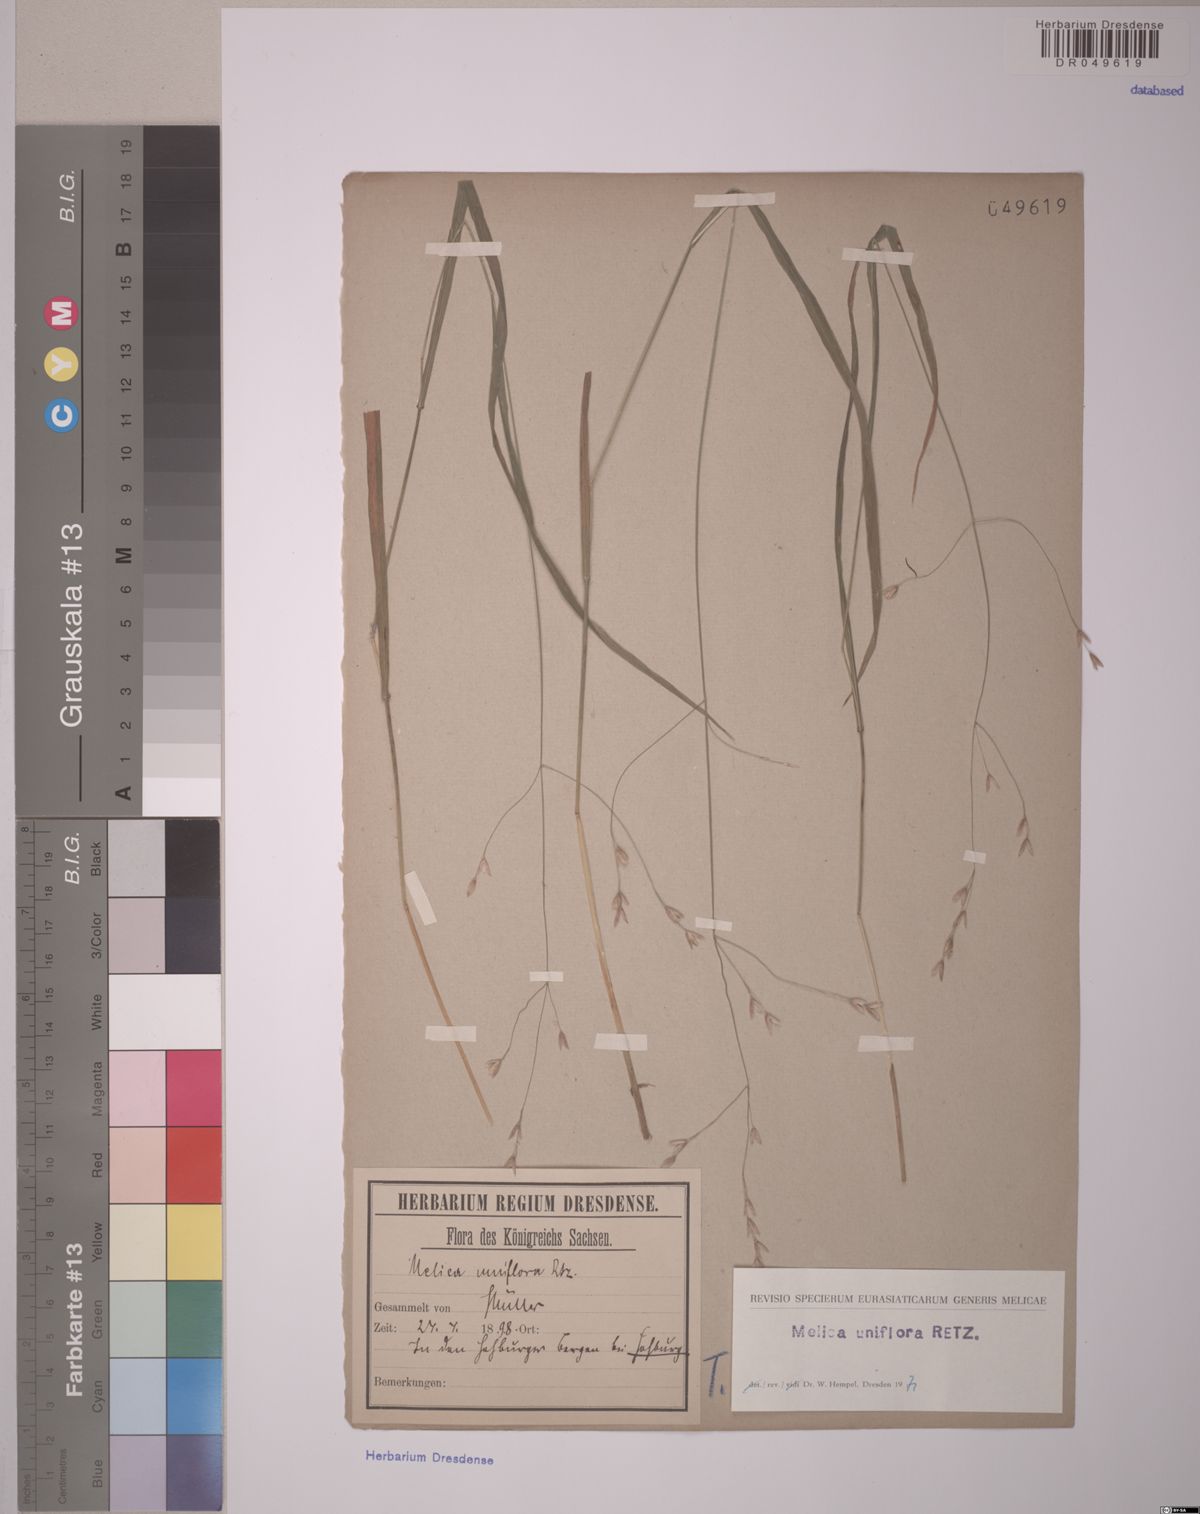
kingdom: Plantae
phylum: Tracheophyta
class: Liliopsida
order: Poales
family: Poaceae
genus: Melica
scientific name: Melica uniflora
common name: Wood melick
